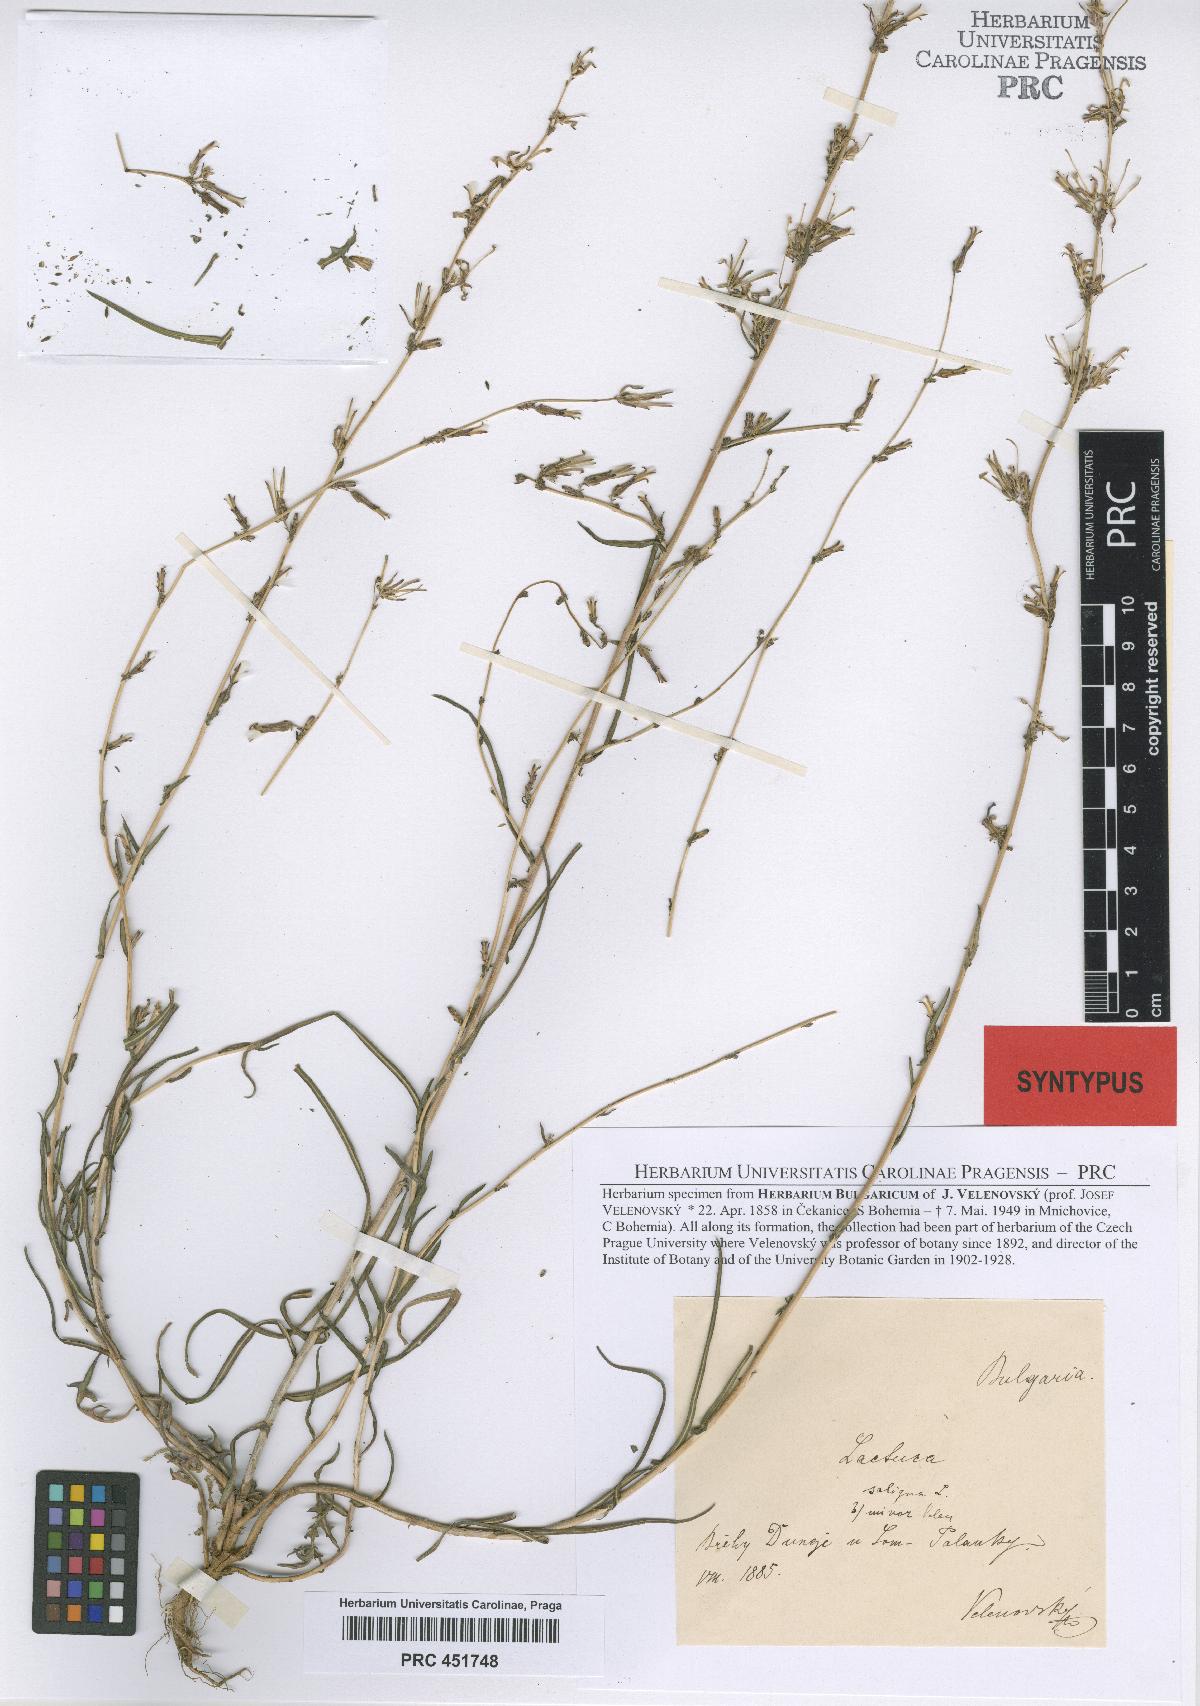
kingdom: Plantae
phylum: Tracheophyta
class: Magnoliopsida
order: Asterales
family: Asteraceae
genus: Lactuca
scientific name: Lactuca saligna
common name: Wild lettuce
